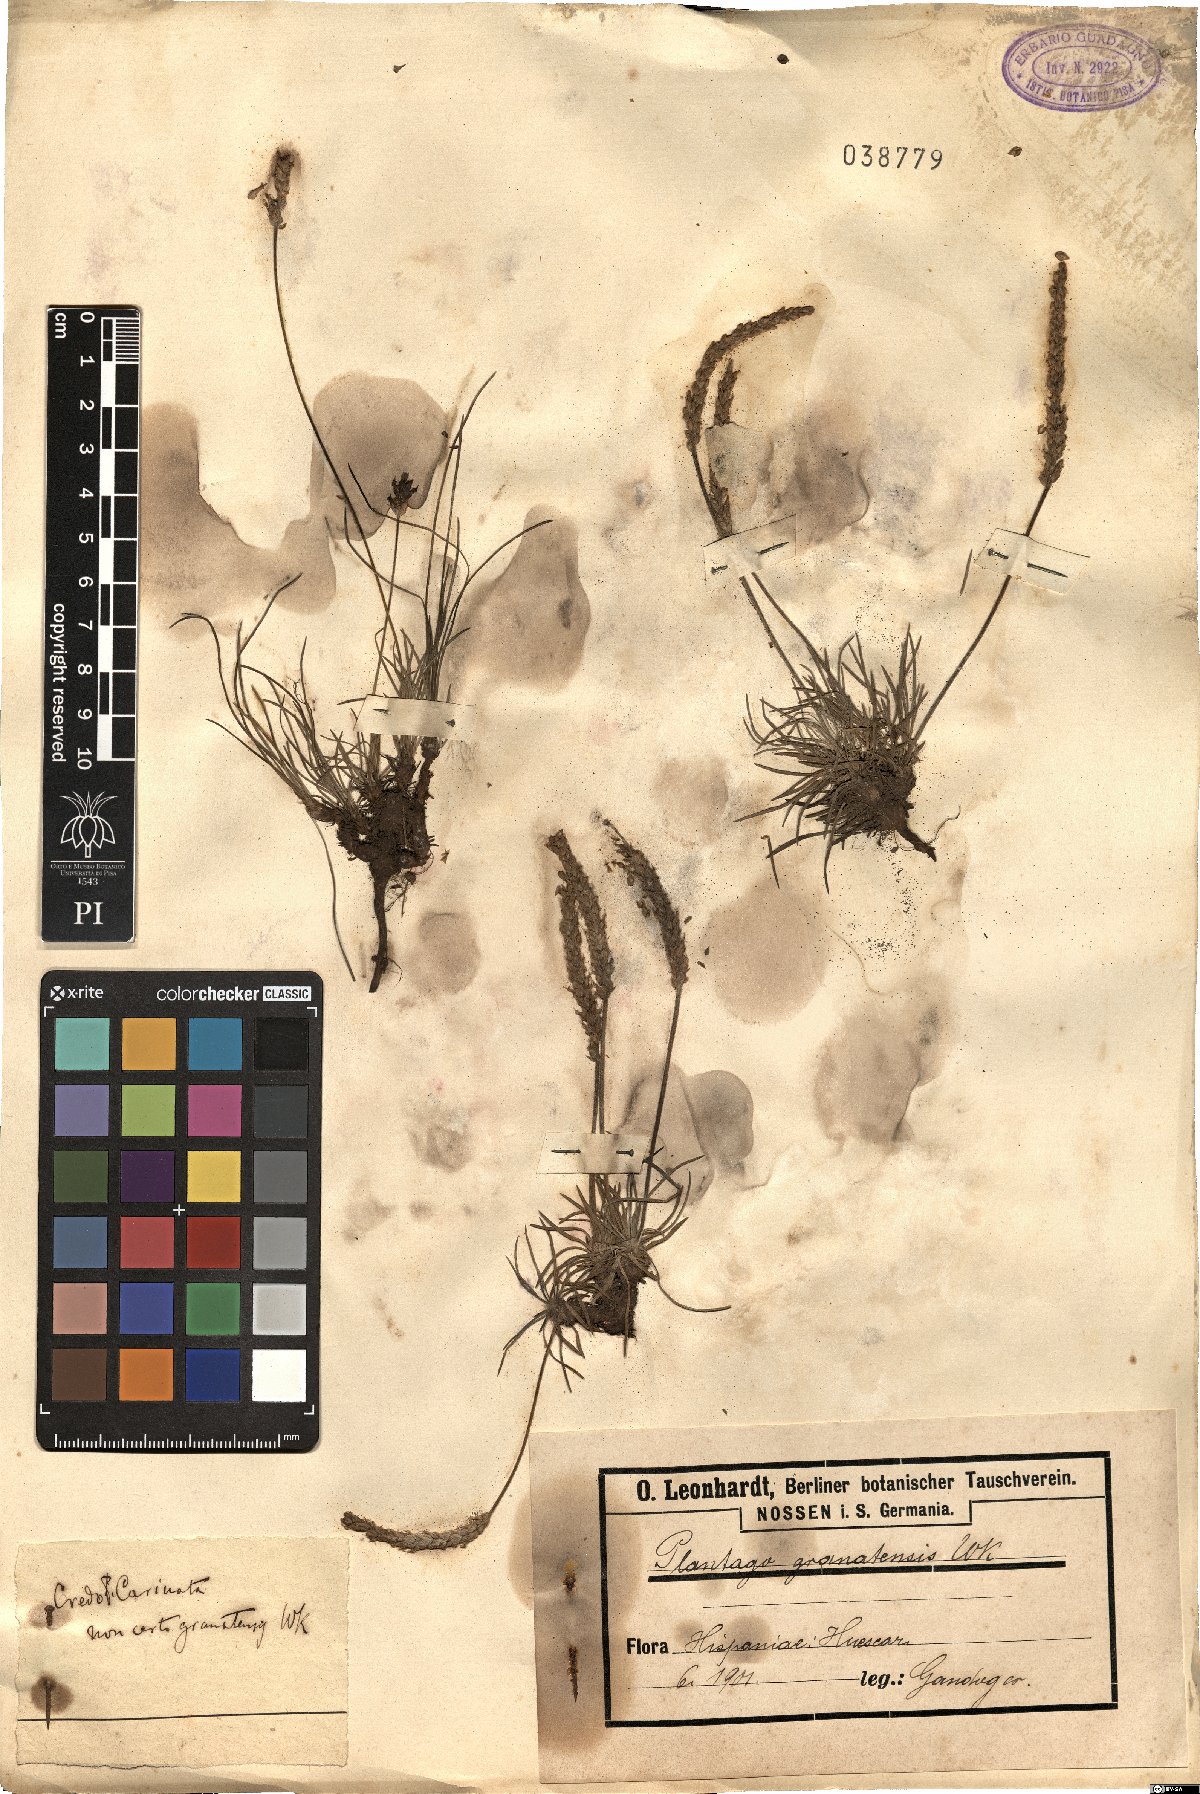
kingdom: Plantae
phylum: Tracheophyta
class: Magnoliopsida
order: Lamiales
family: Plantaginaceae
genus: Plantago
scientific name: Plantago
